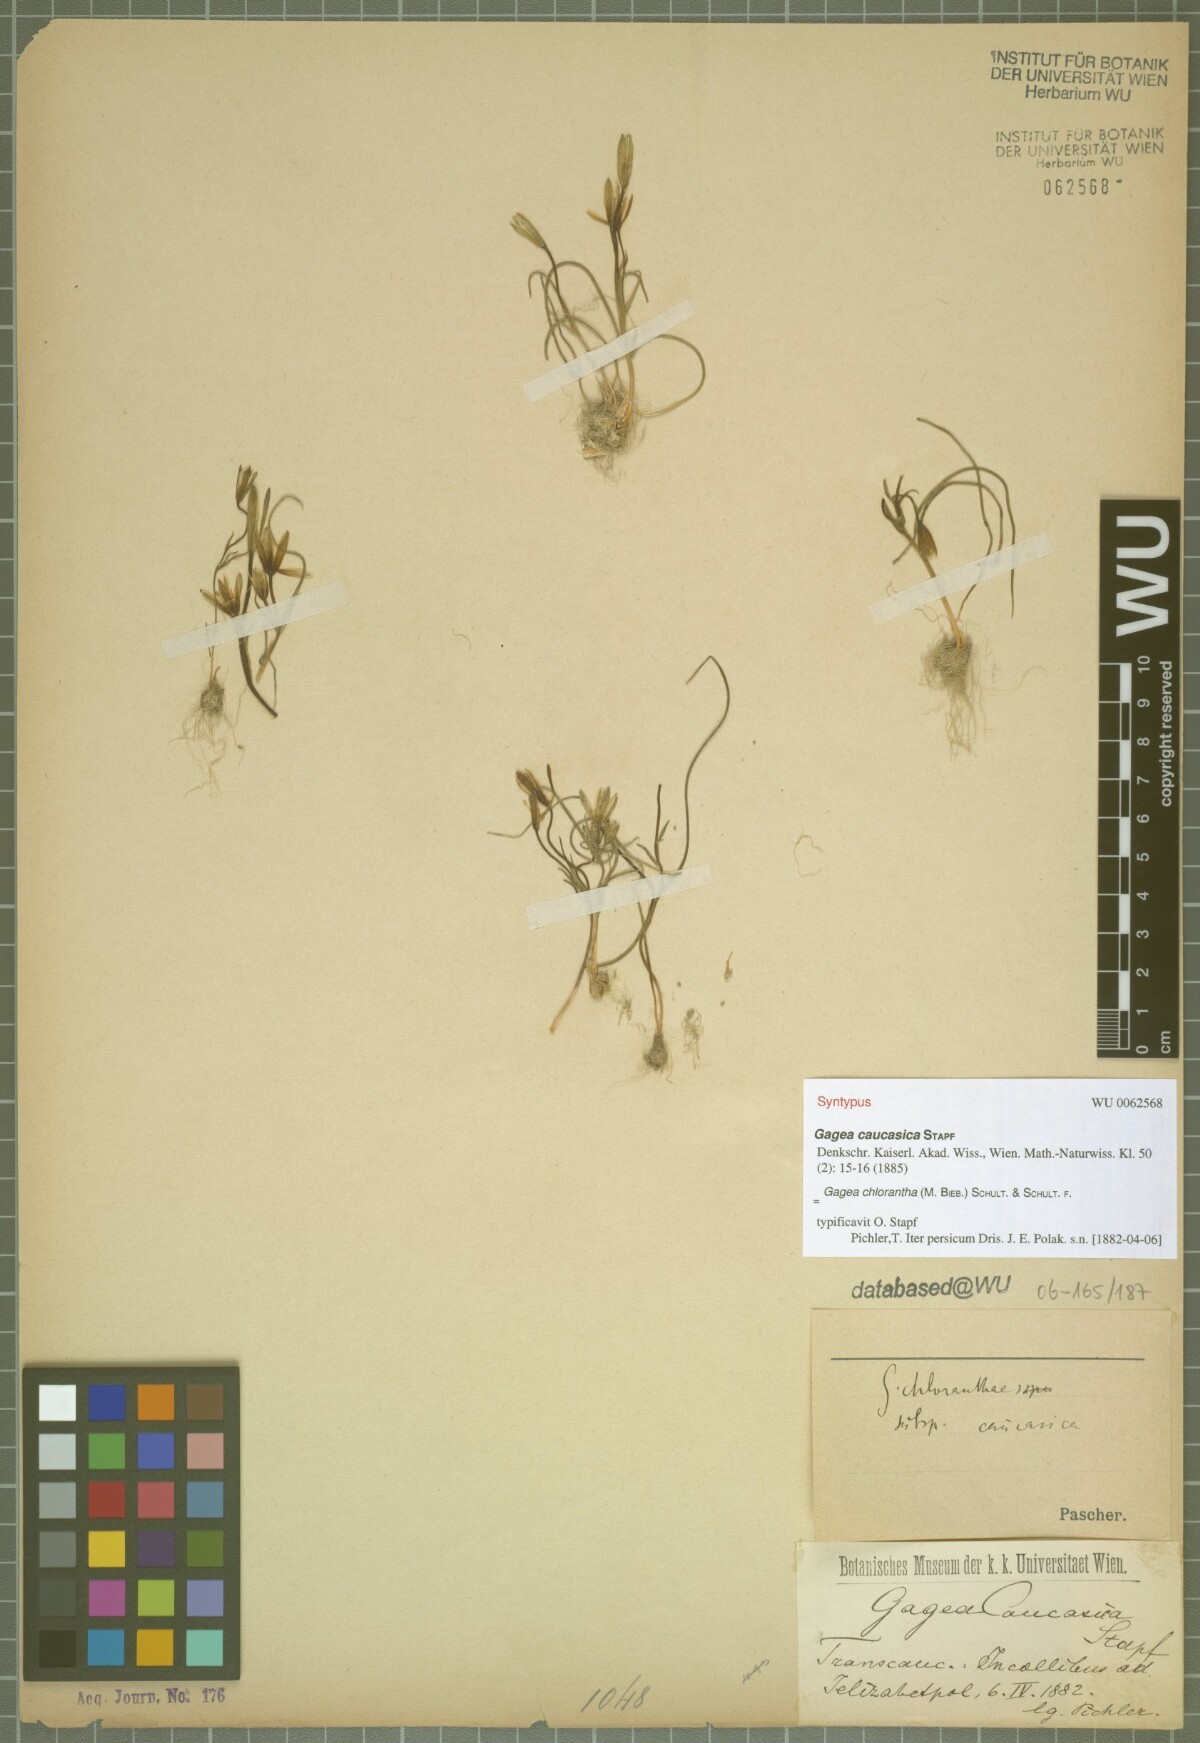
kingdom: Plantae
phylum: Tracheophyta
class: Liliopsida
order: Liliales
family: Liliaceae
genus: Gagea
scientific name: Gagea chlorantha
